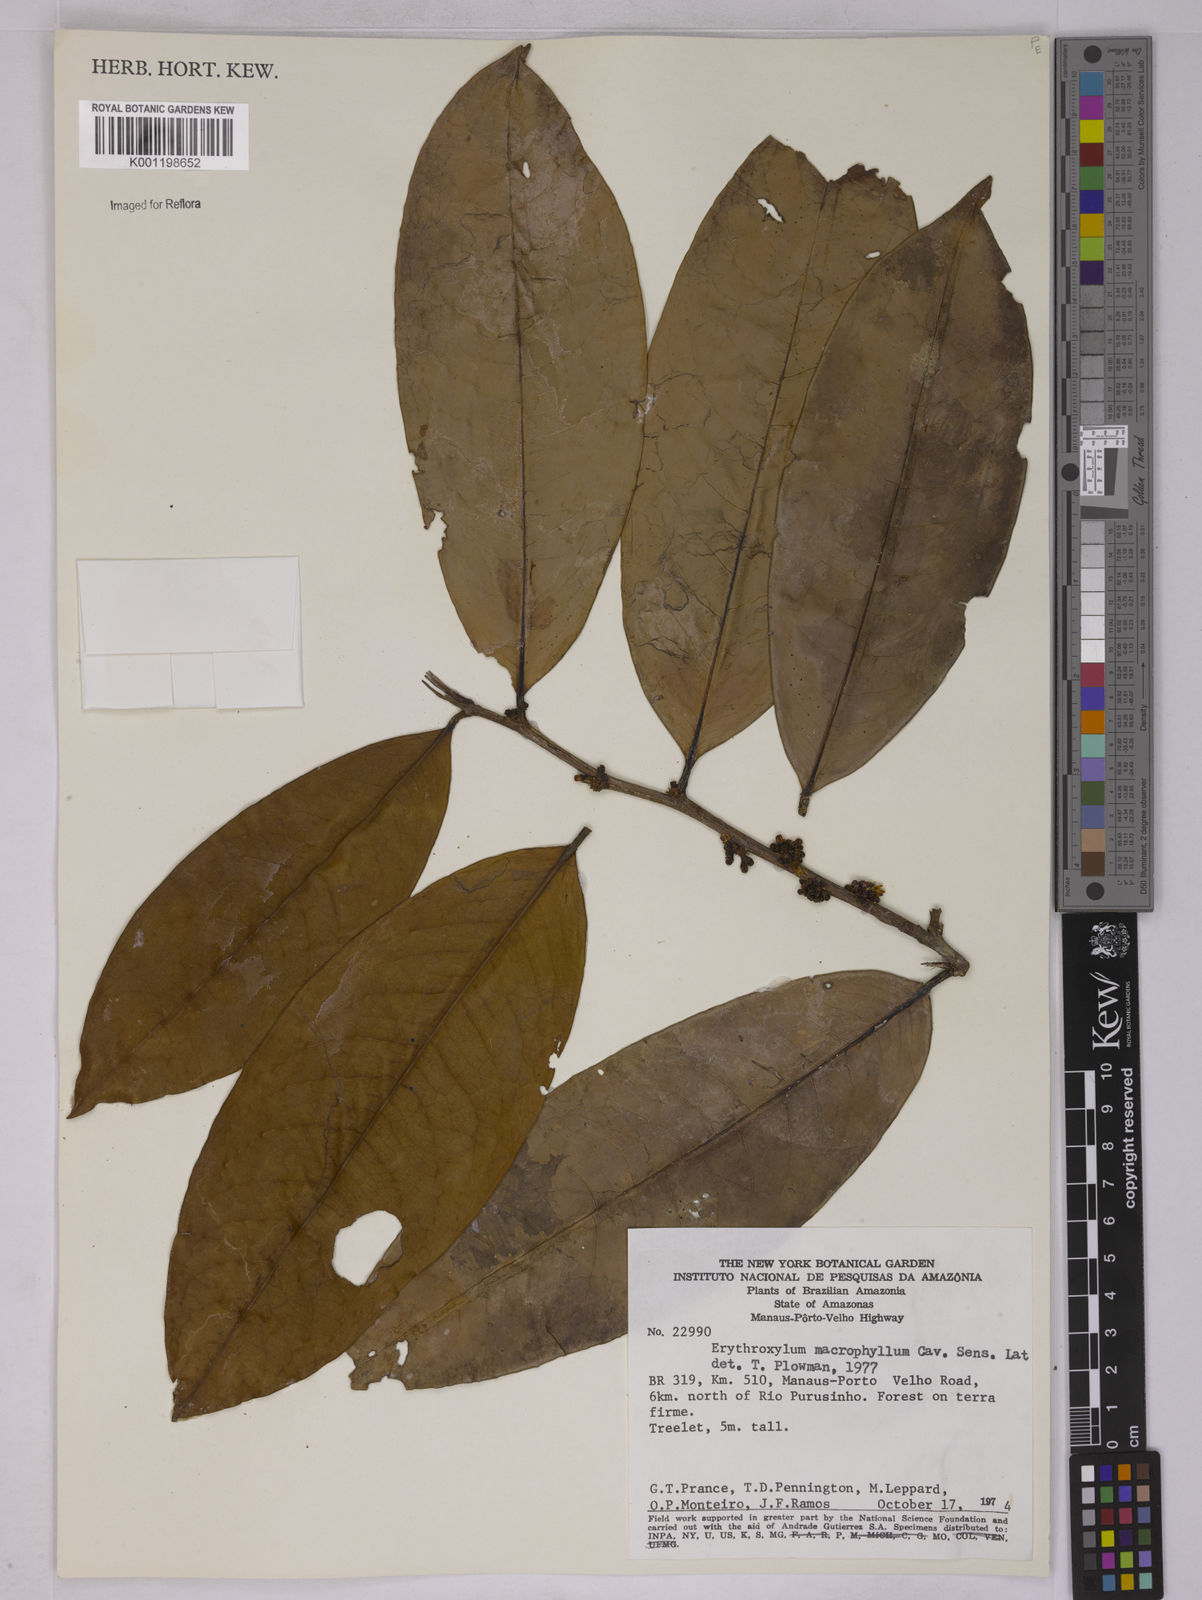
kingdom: Plantae
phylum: Tracheophyta
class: Magnoliopsida
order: Malpighiales
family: Erythroxylaceae
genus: Erythroxylum
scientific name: Erythroxylum macrophyllum
